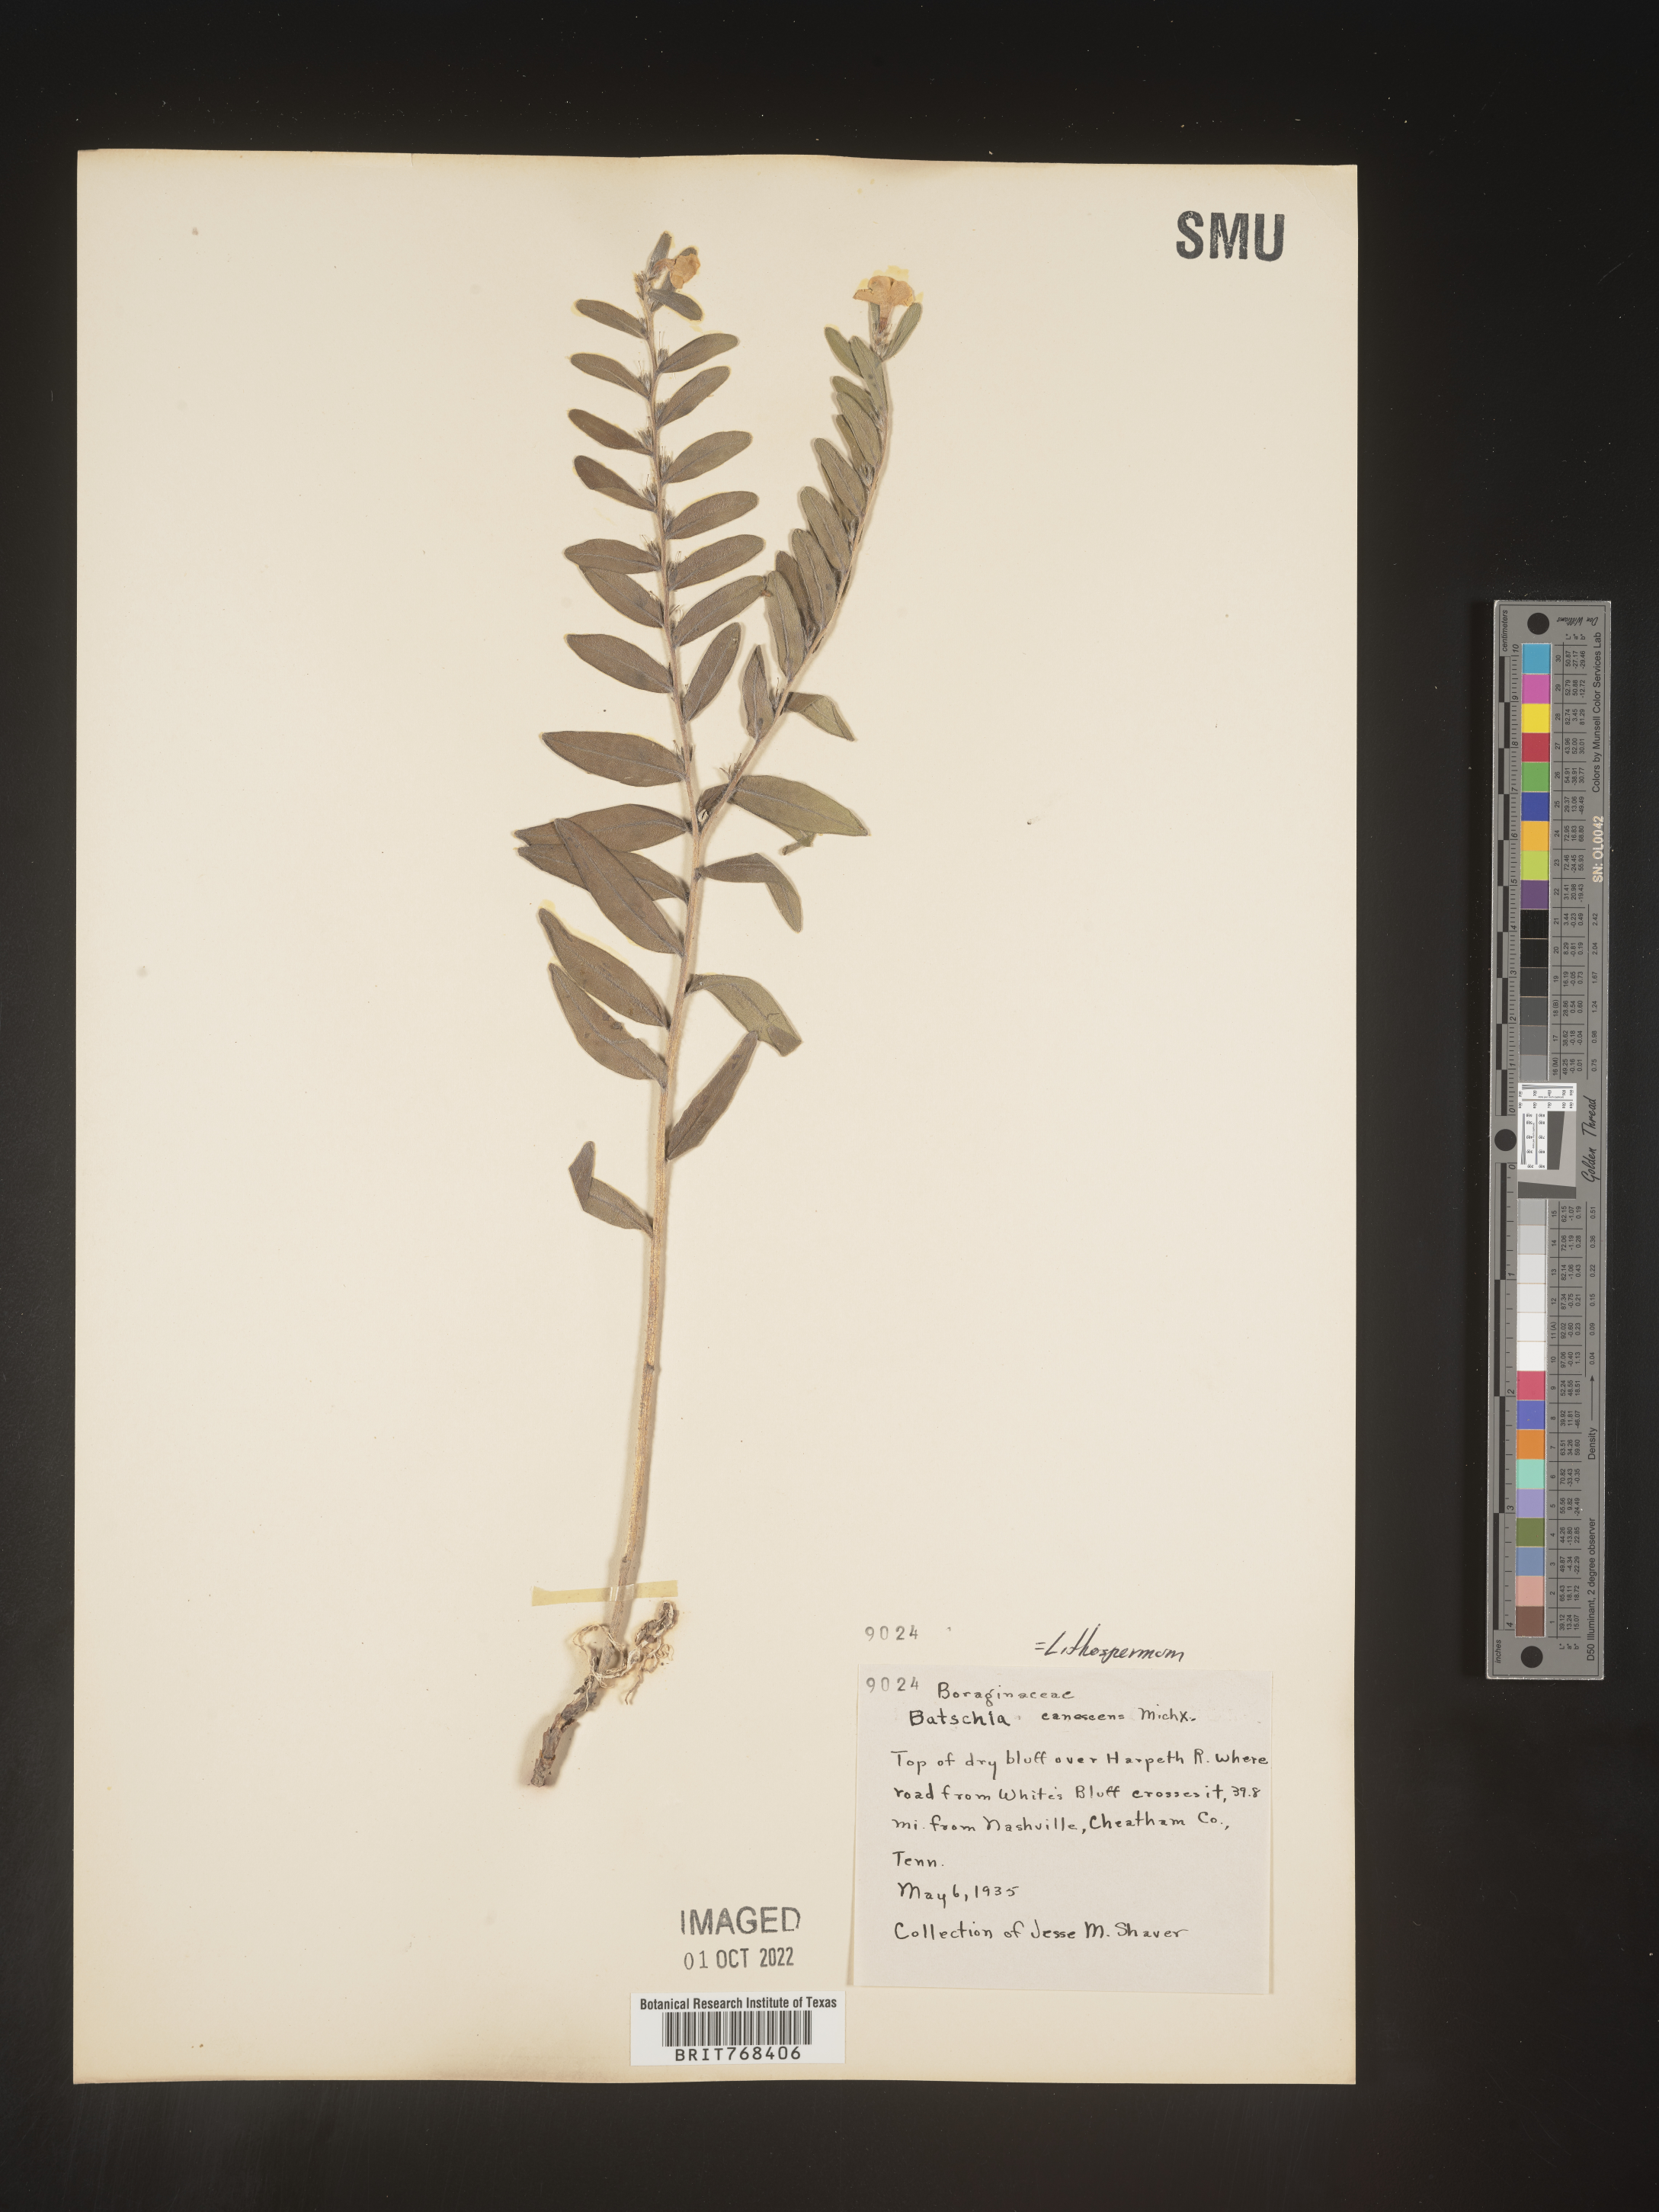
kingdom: Plantae
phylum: Tracheophyta
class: Magnoliopsida
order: Boraginales
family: Boraginaceae
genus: Lithospermum
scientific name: Lithospermum canescens
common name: Hoary puccoon
